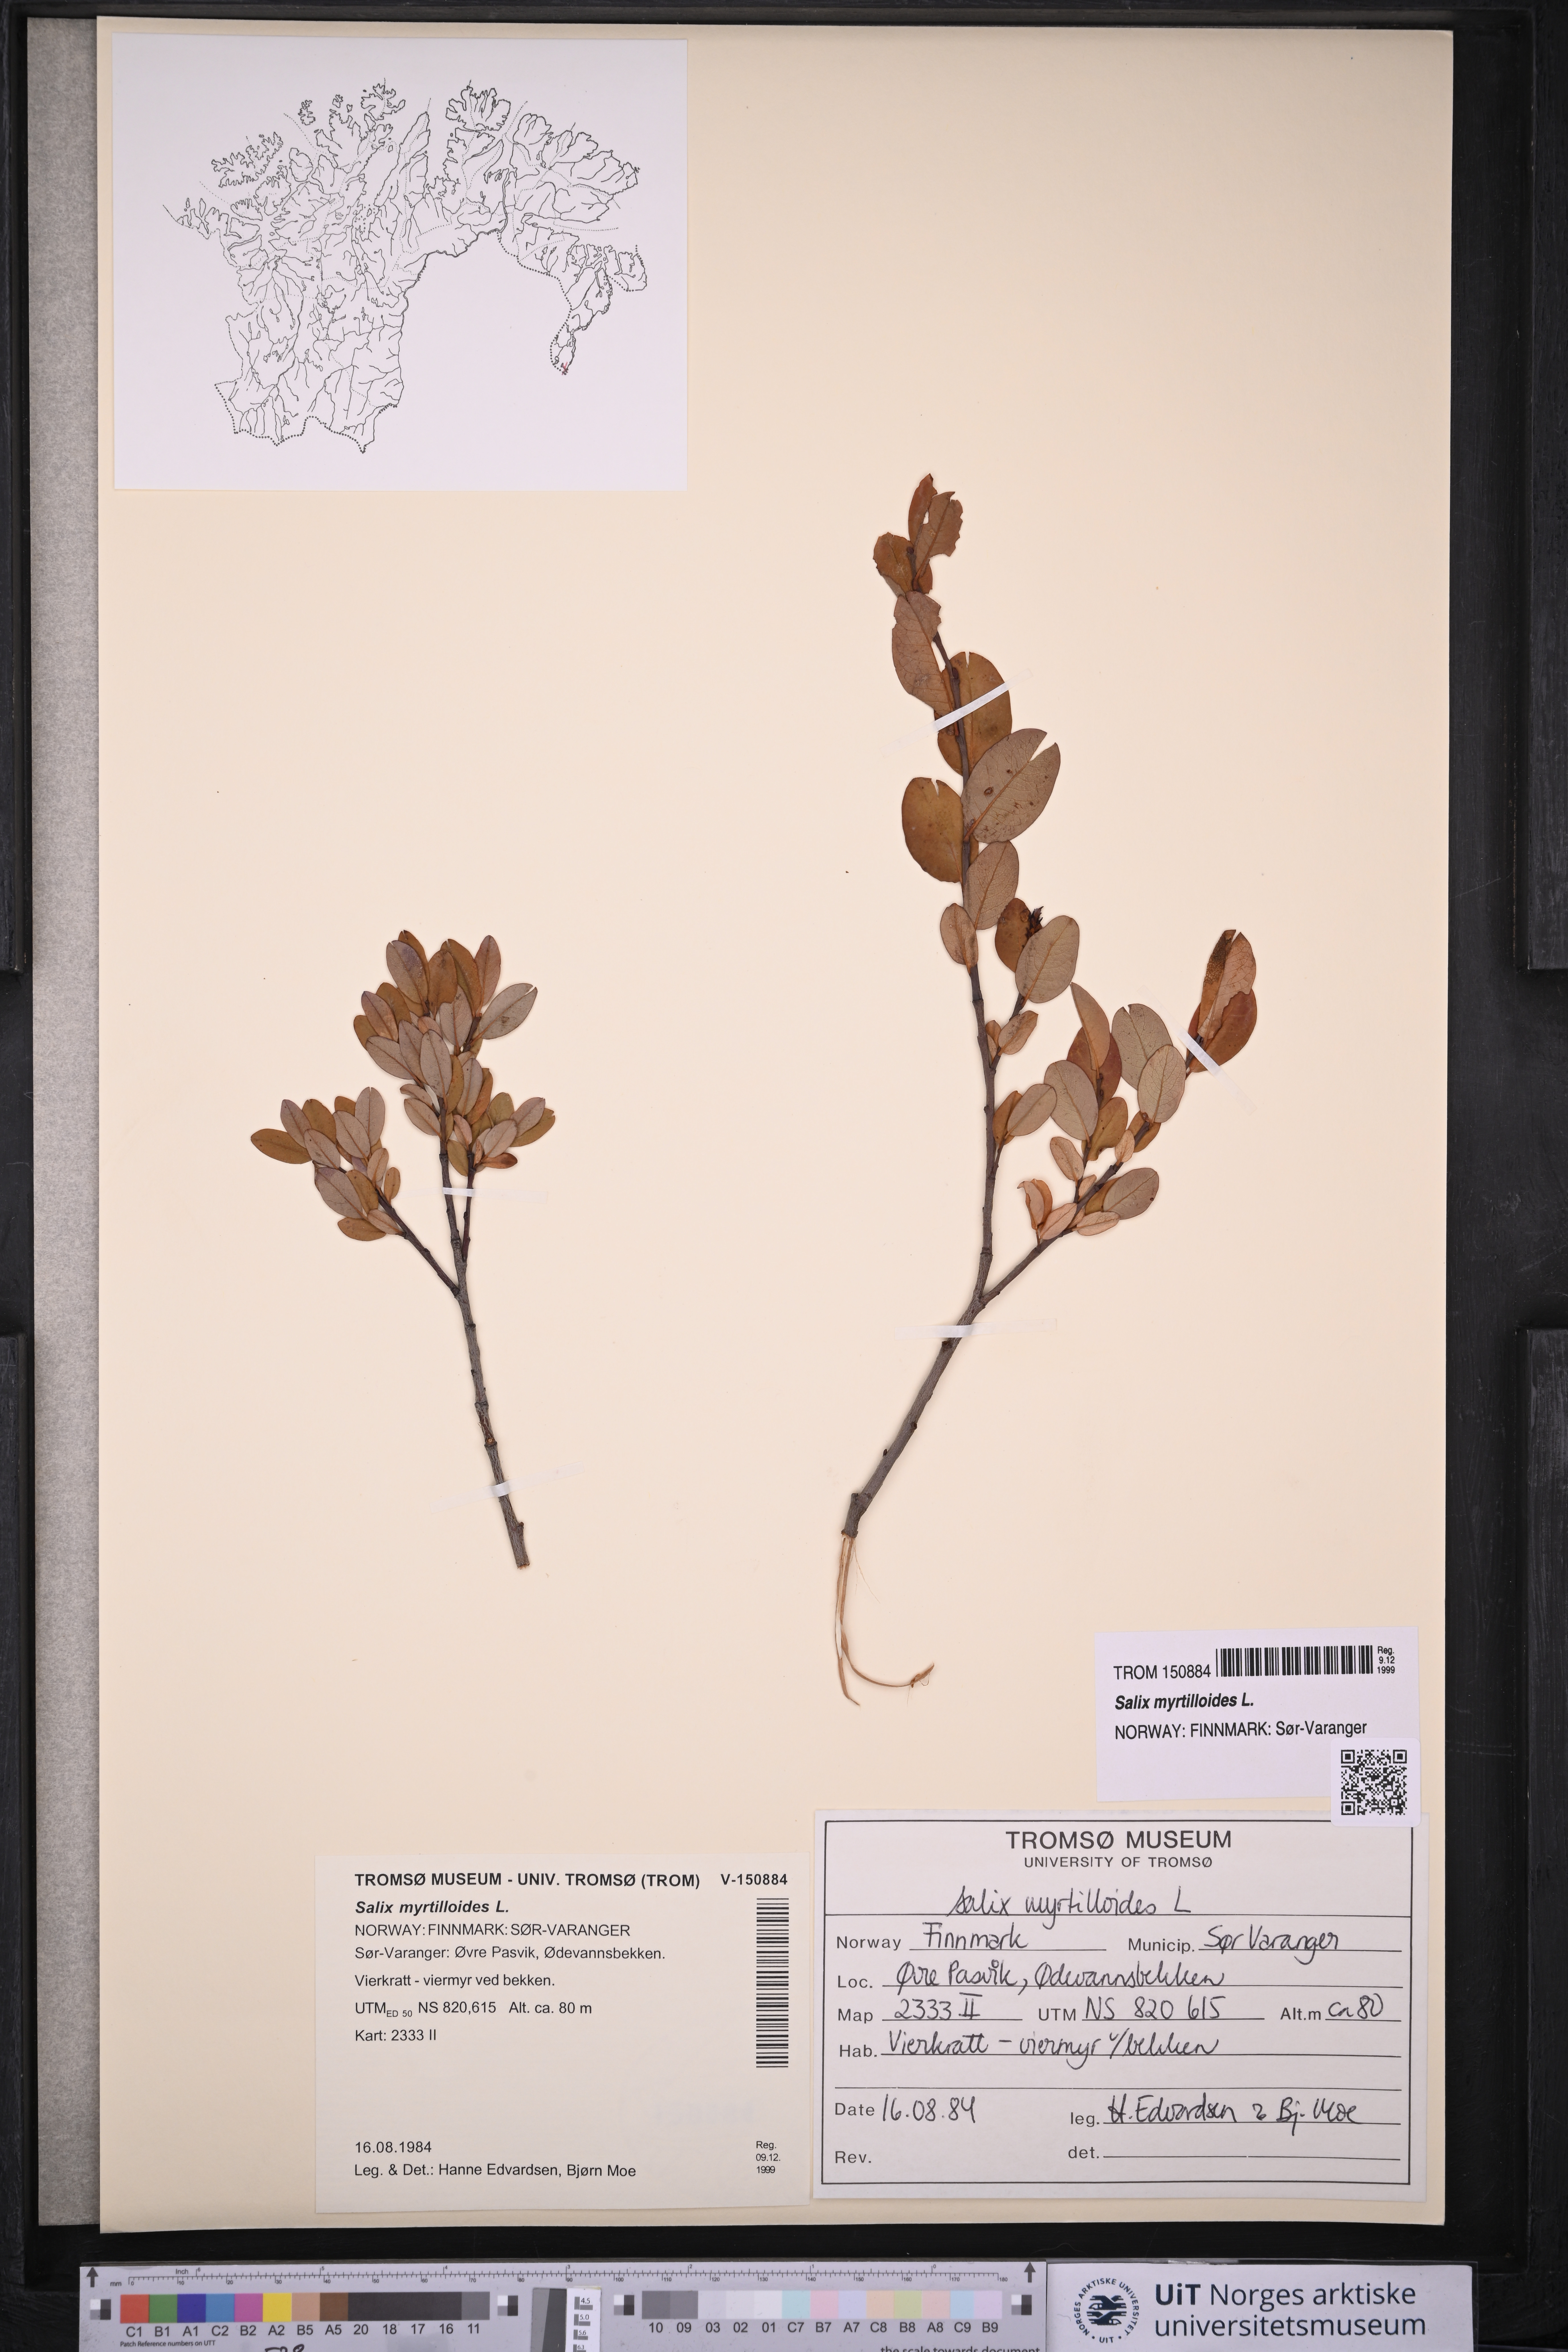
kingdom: Plantae
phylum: Tracheophyta
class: Magnoliopsida
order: Malpighiales
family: Salicaceae
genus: Salix
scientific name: Salix myrtilloides
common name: Myrtle-leaved willow
